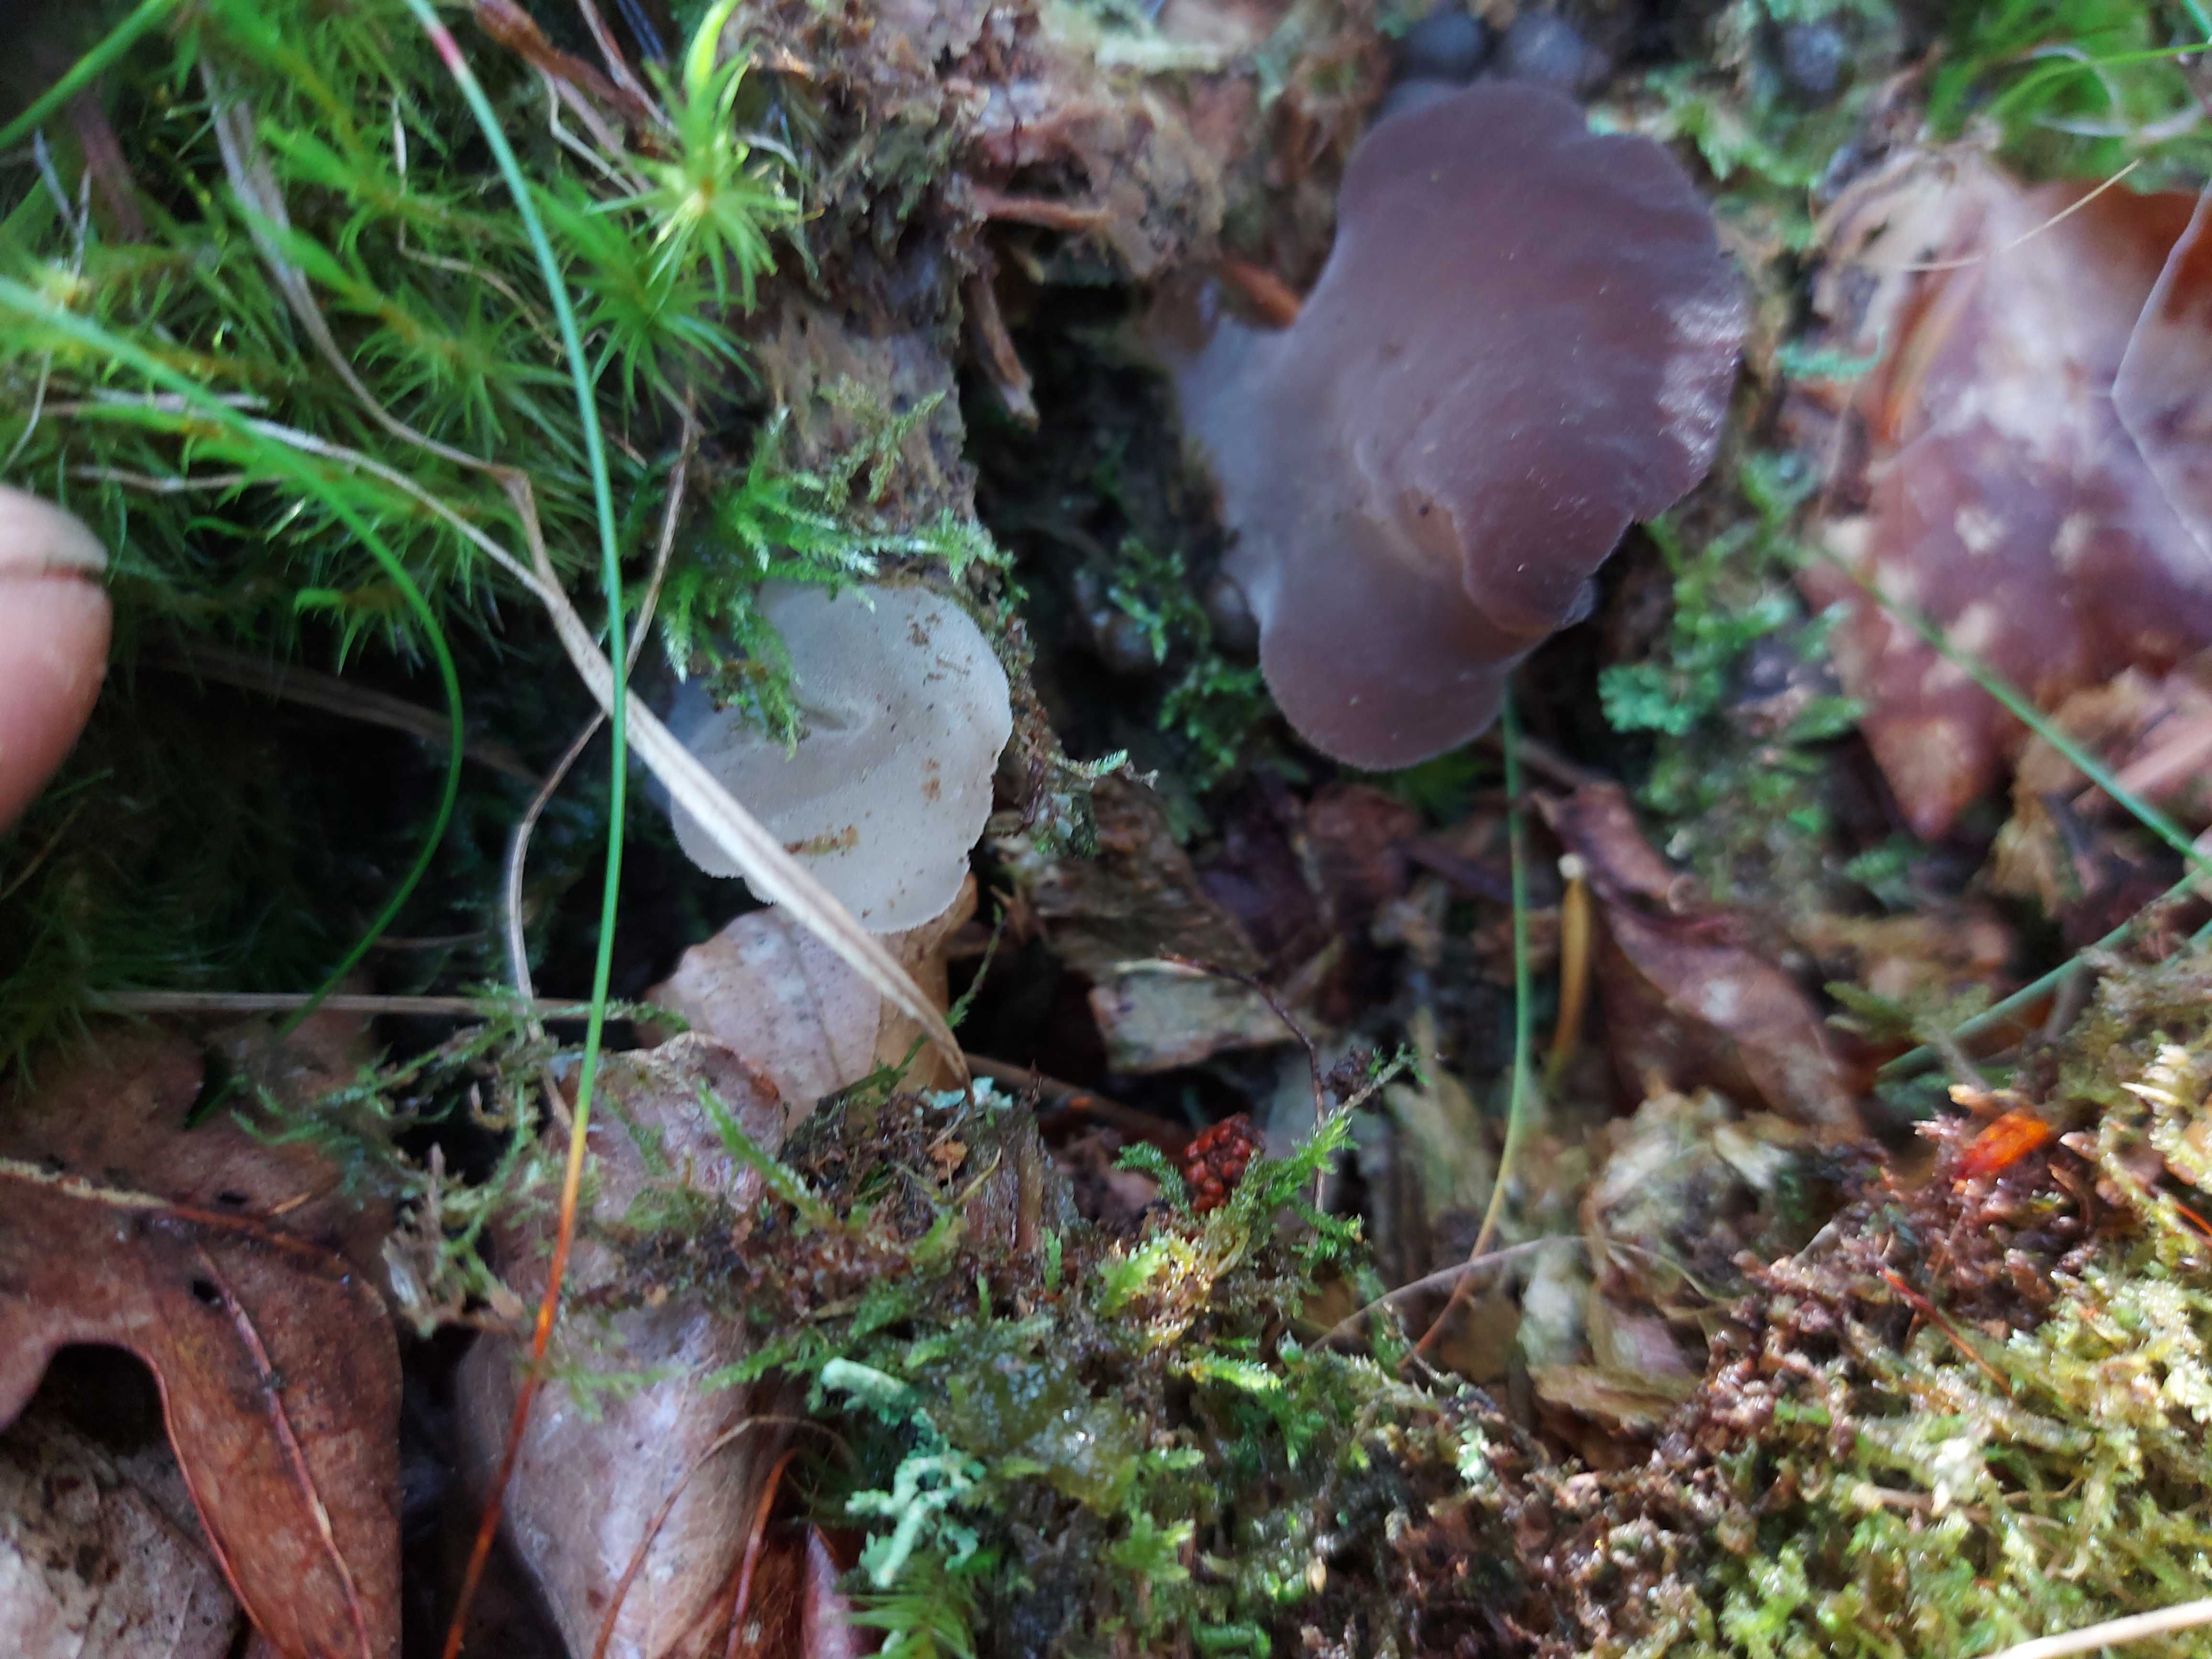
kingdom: Fungi
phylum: Basidiomycota
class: Agaricomycetes
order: Auriculariales
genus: Pseudohydnum
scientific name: Pseudohydnum gelatinosum
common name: bævretand
